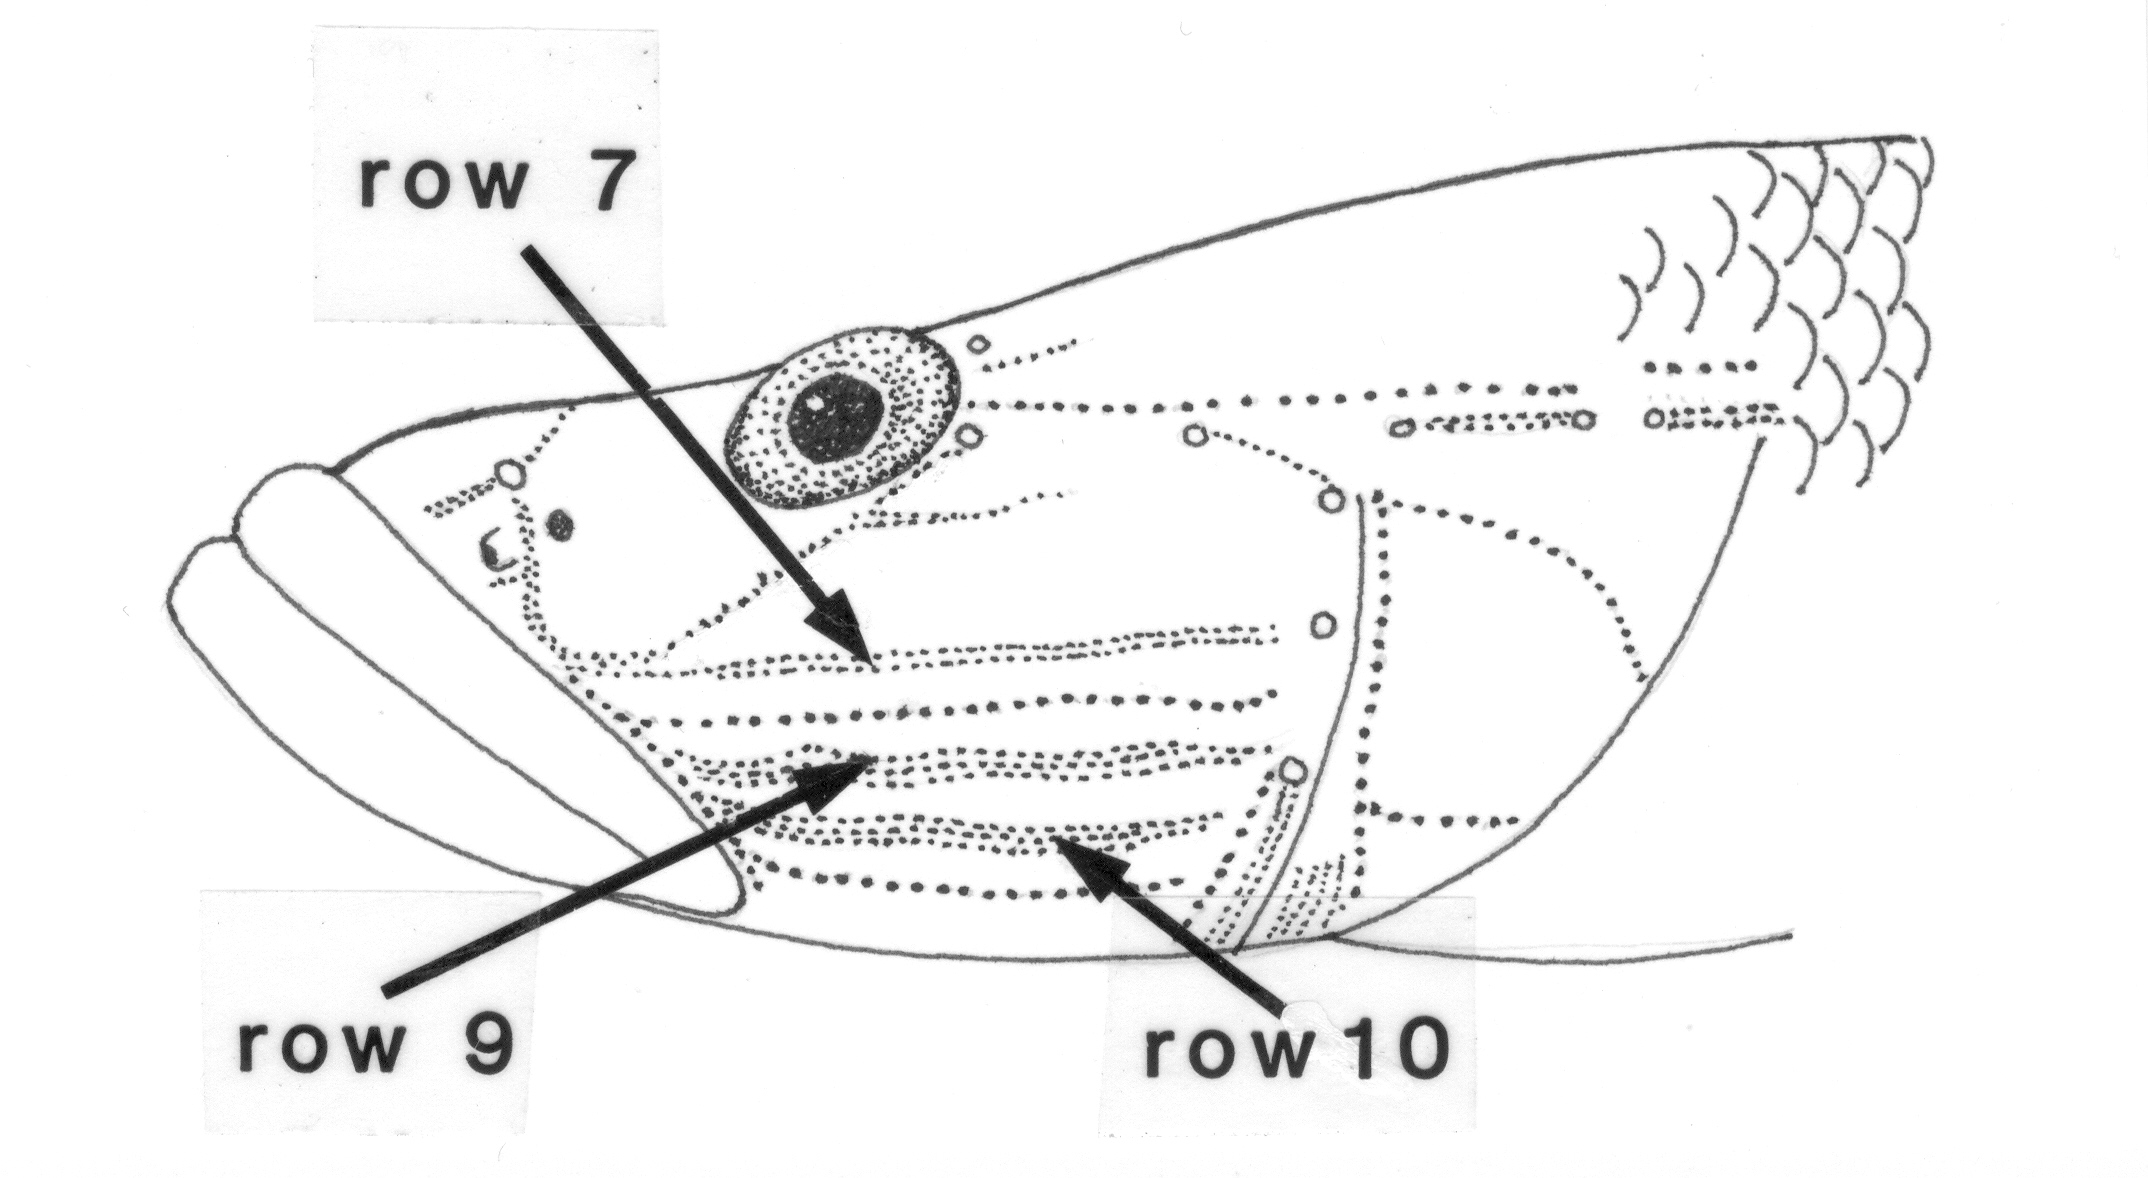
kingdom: Animalia
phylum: Chordata
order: Perciformes
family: Gobiidae
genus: Glossogobius
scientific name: Glossogobius giuris
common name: Tank goby
